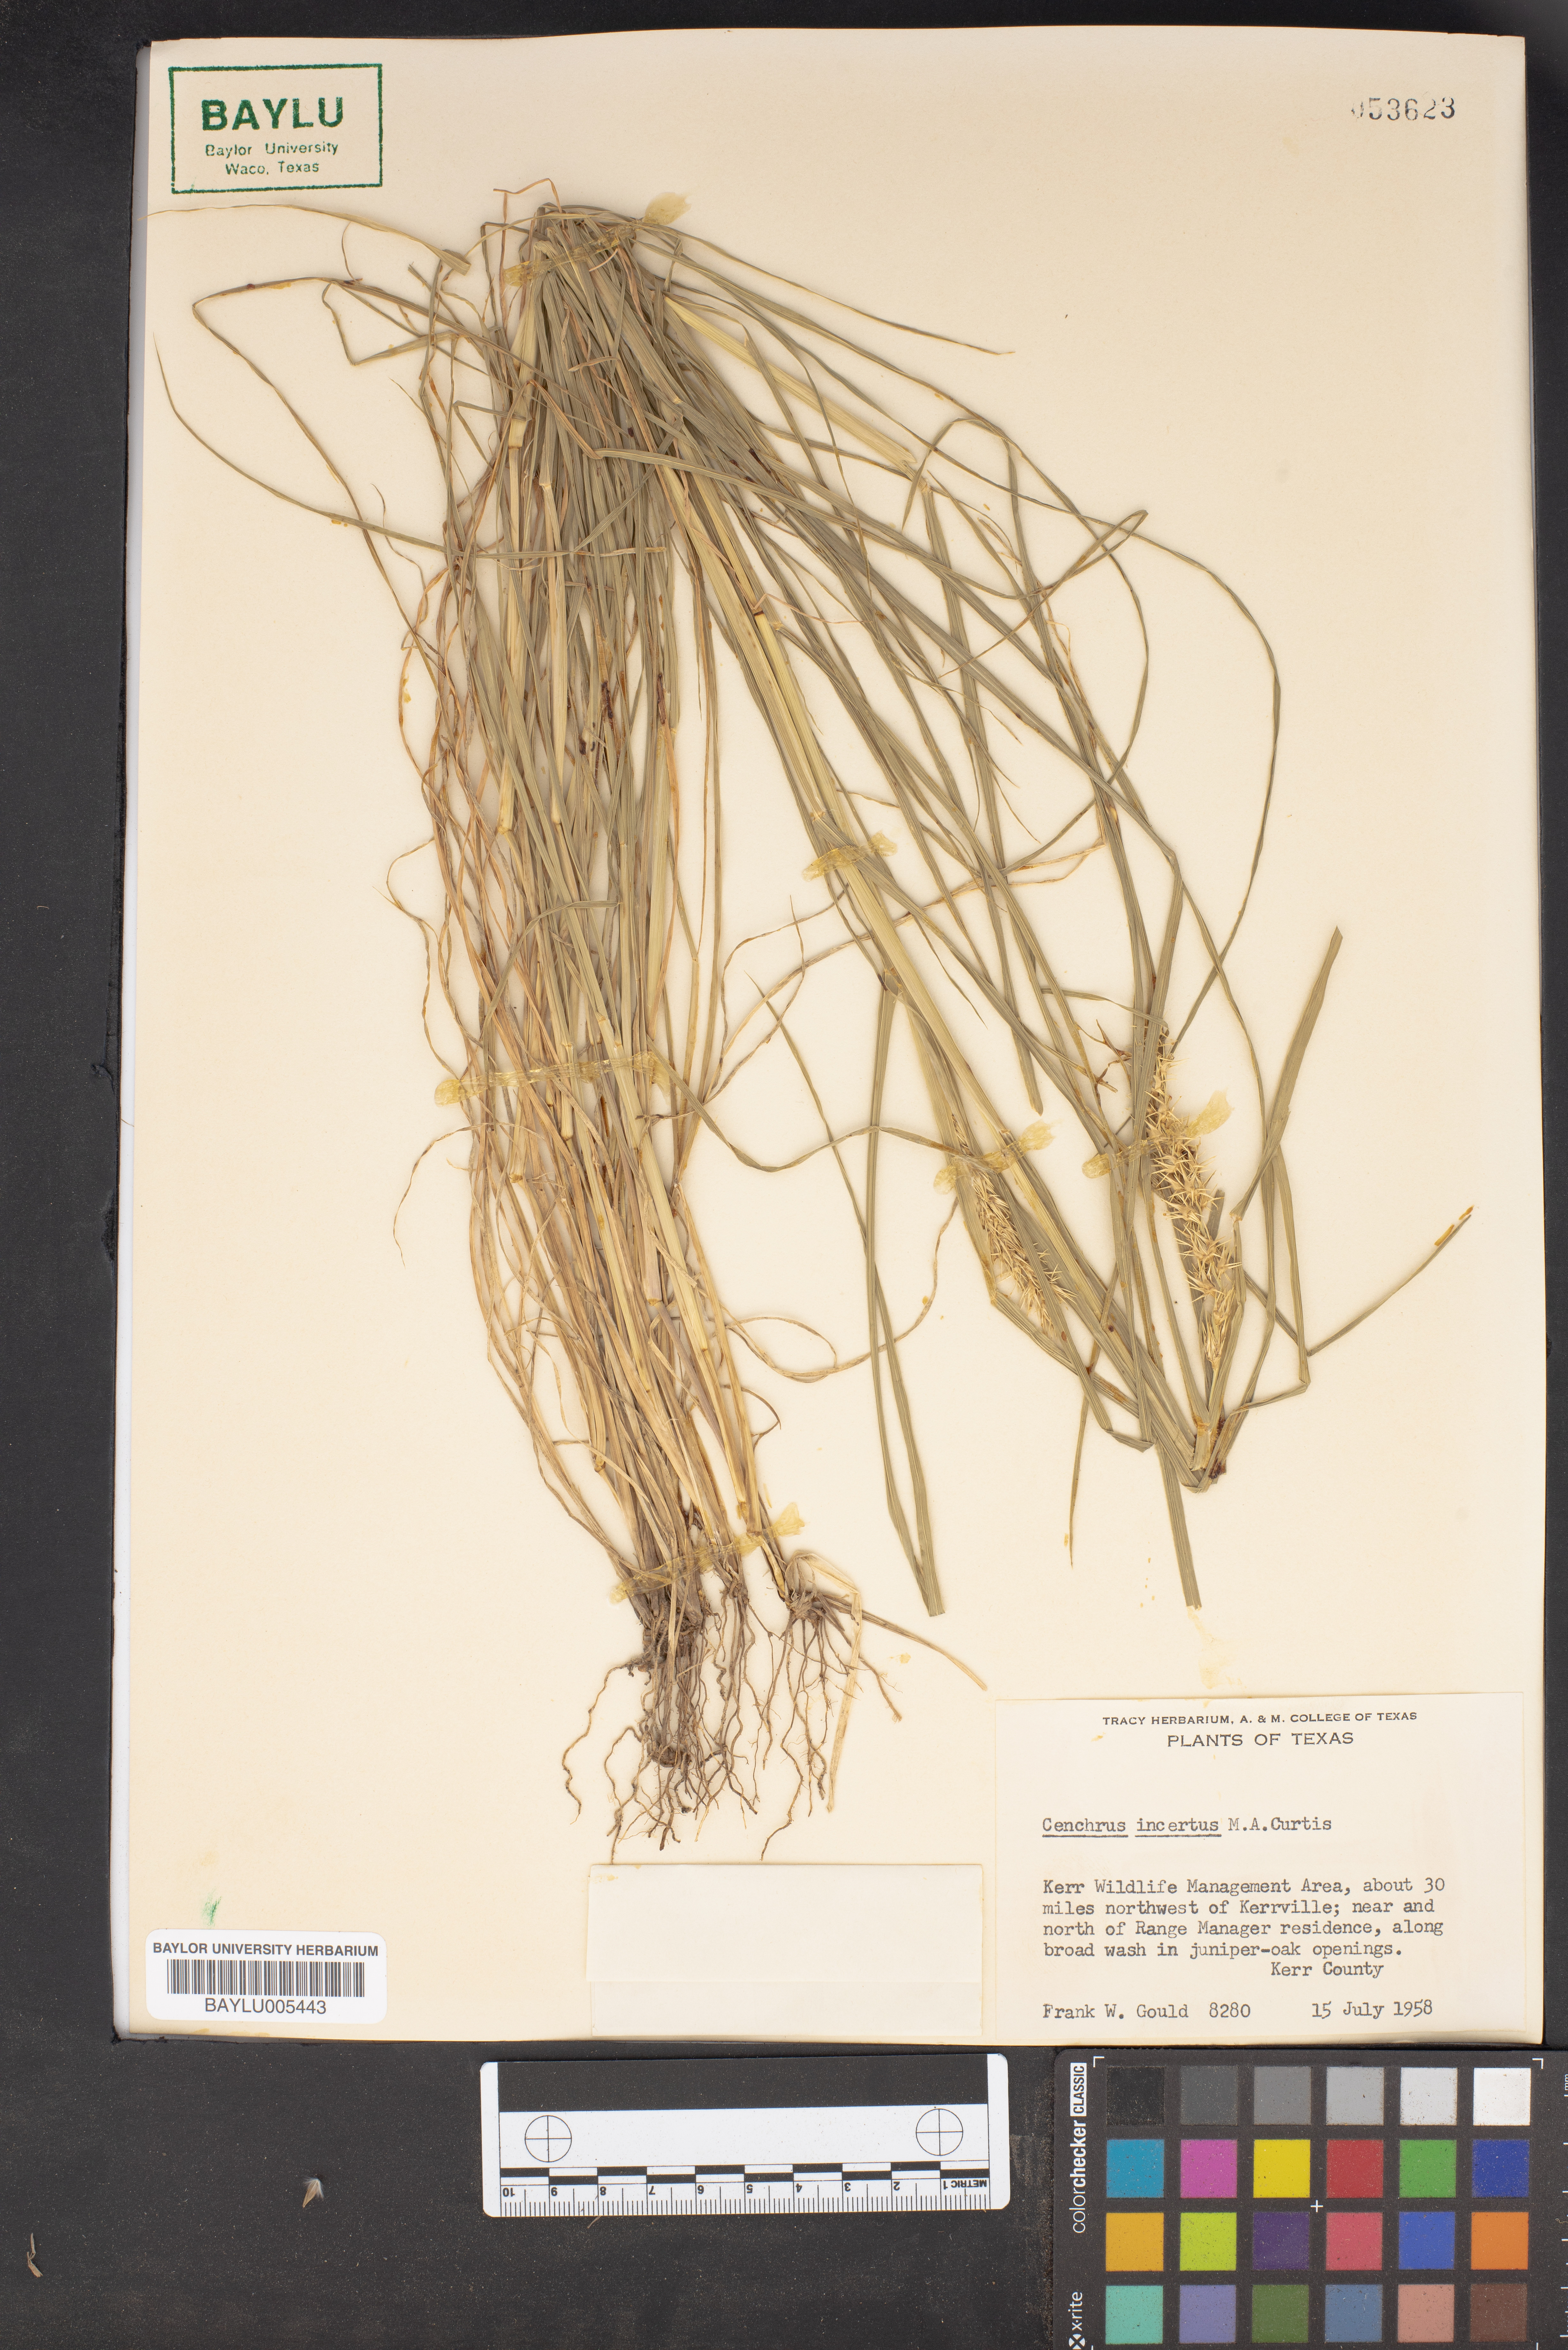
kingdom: Plantae
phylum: Tracheophyta
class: Liliopsida
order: Poales
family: Poaceae
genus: Cenchrus
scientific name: Cenchrus spinifex
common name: Coast sandbur
